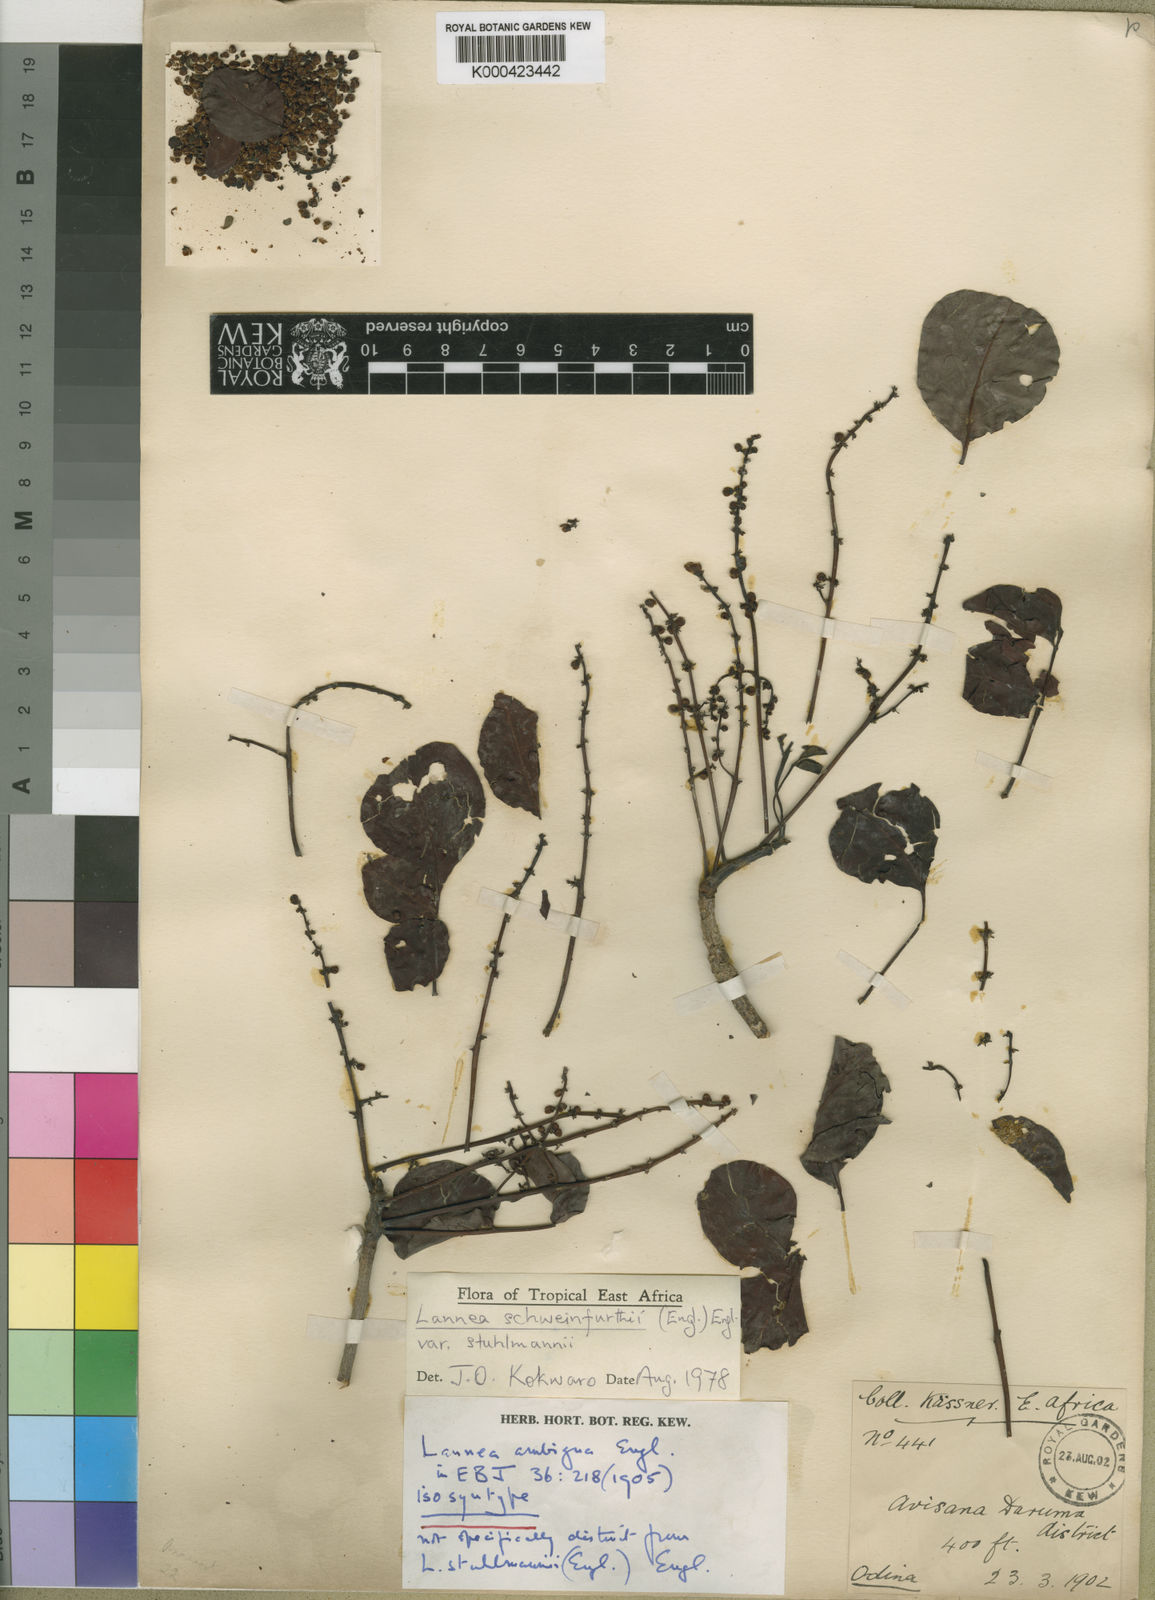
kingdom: Plantae
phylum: Tracheophyta
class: Magnoliopsida
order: Sapindales
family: Anacardiaceae
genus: Lannea
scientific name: Lannea schweinfurthii
